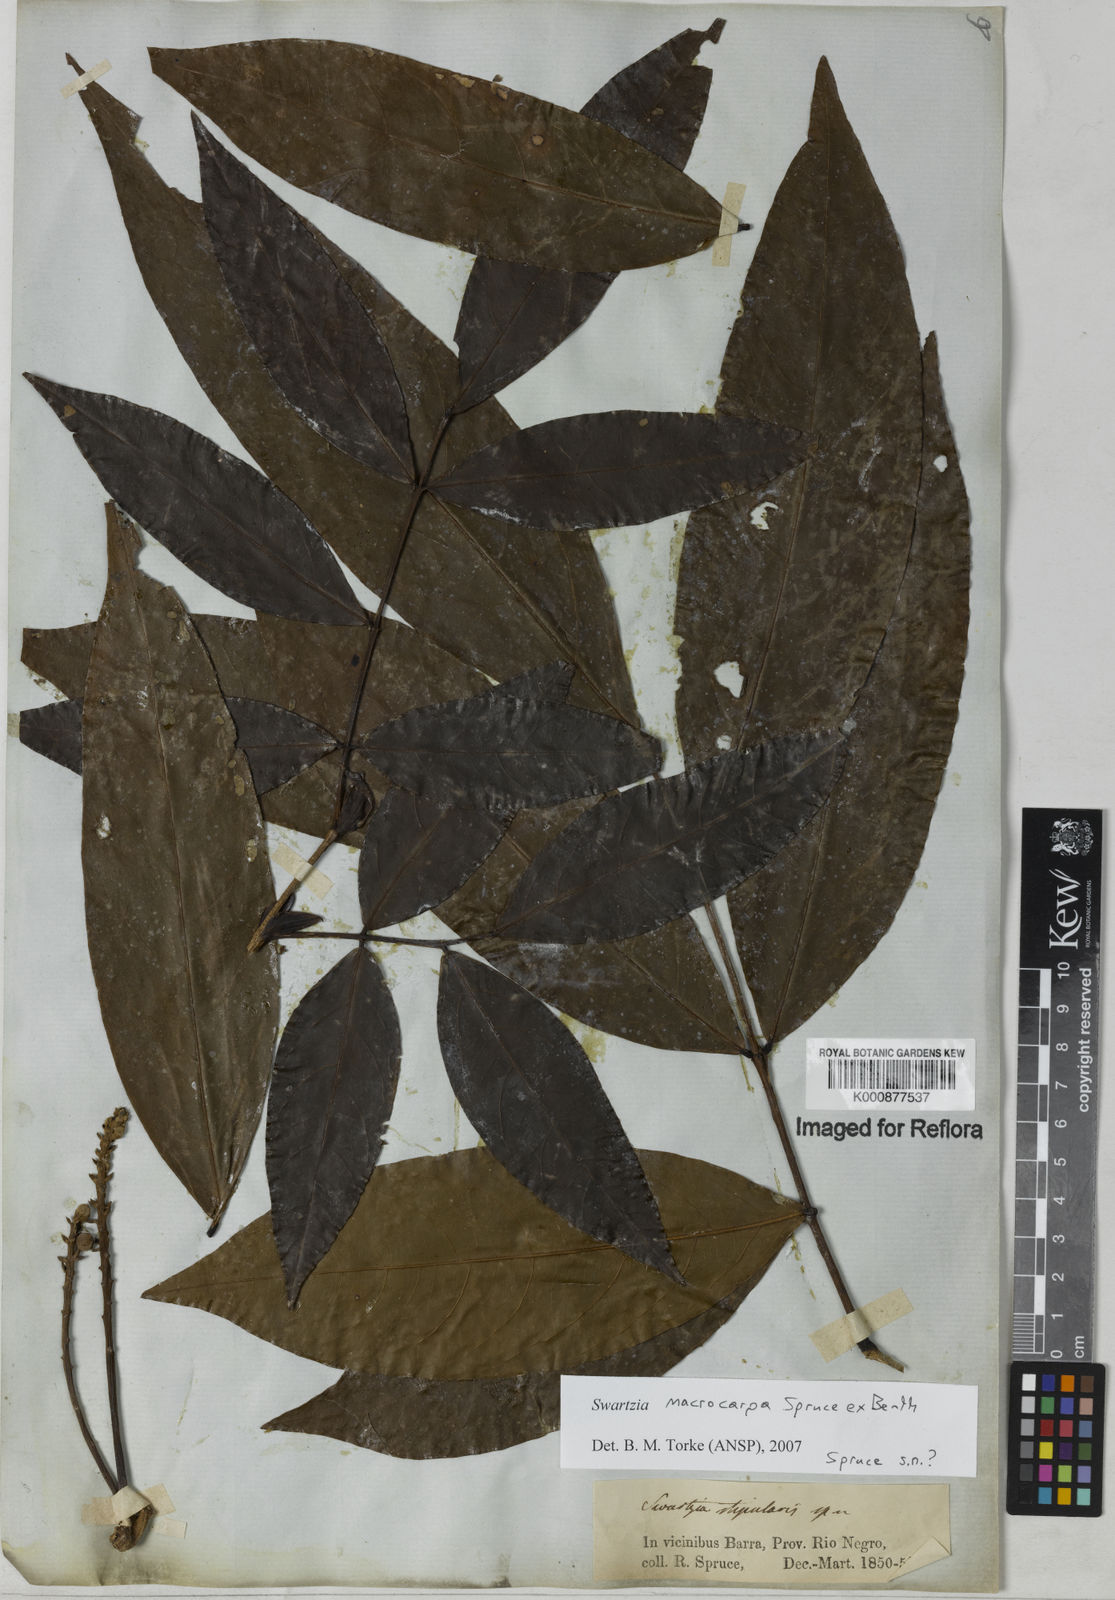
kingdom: Plantae
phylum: Tracheophyta
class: Magnoliopsida
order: Fabales
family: Fabaceae
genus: Swartzia
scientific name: Swartzia macrocarpa
